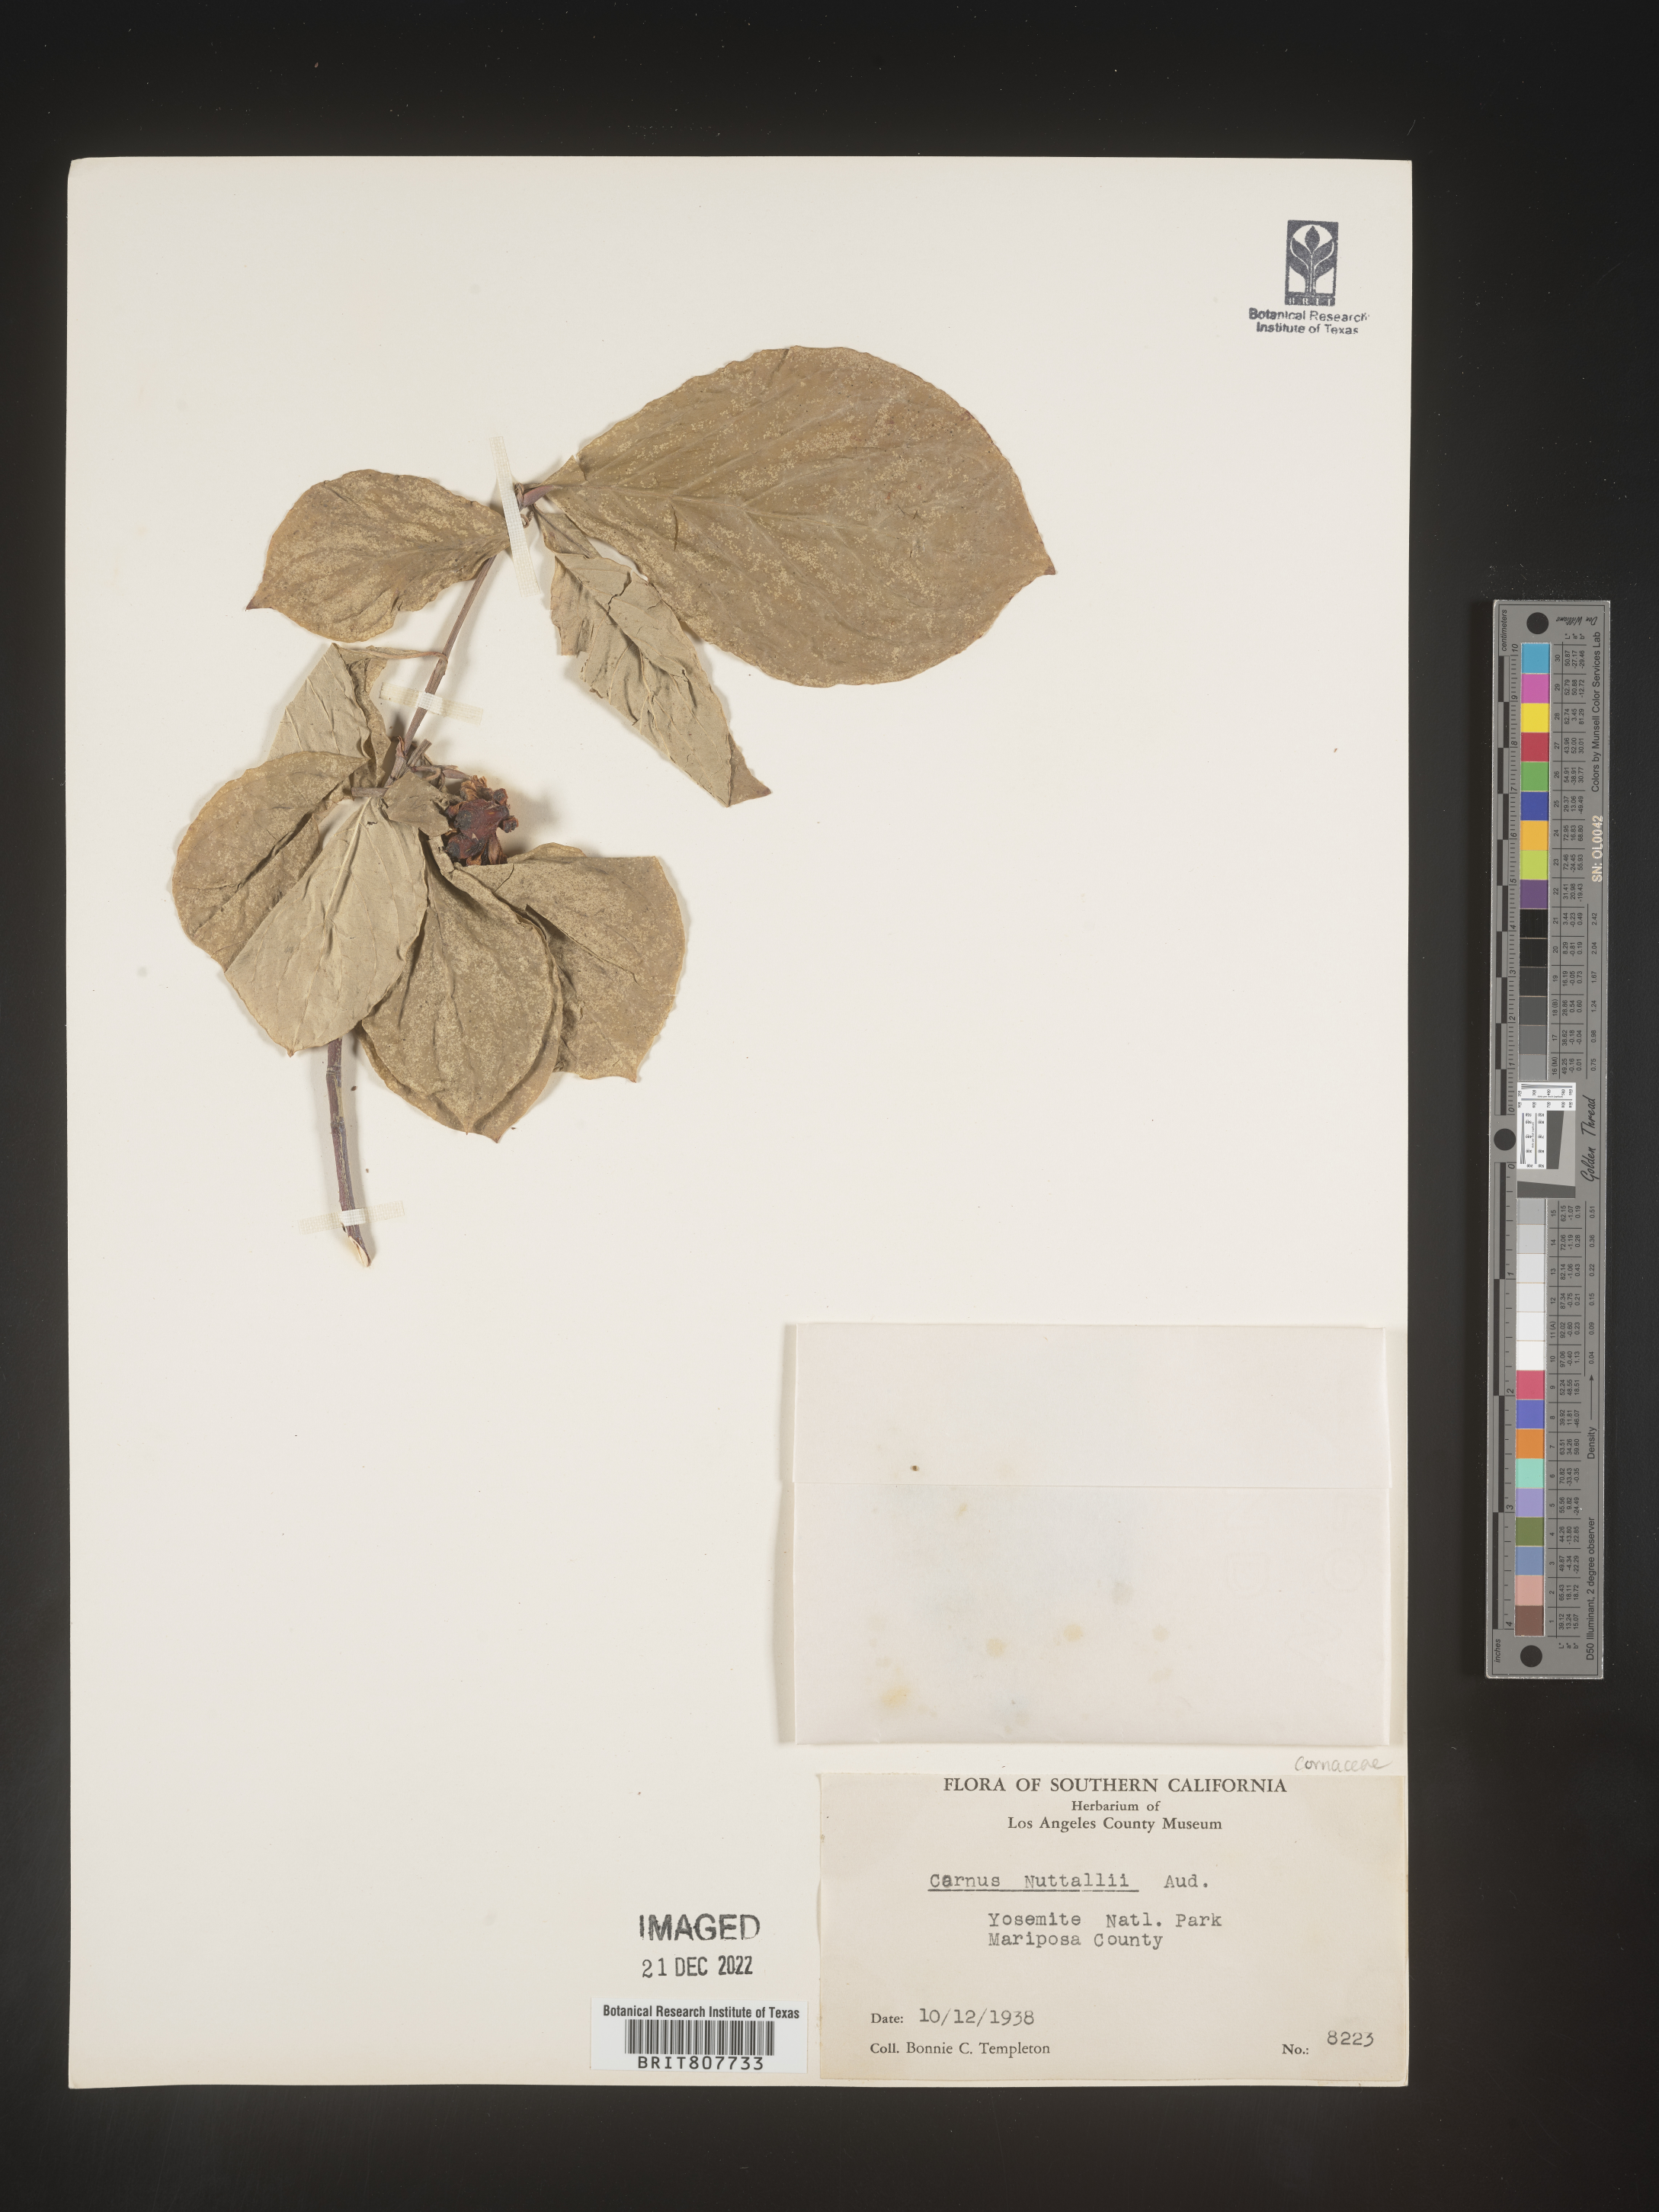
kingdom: Plantae
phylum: Tracheophyta
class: Magnoliopsida
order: Cornales
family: Cornaceae
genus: Cornus
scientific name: Cornus nuttallii
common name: Pacific dogwood
